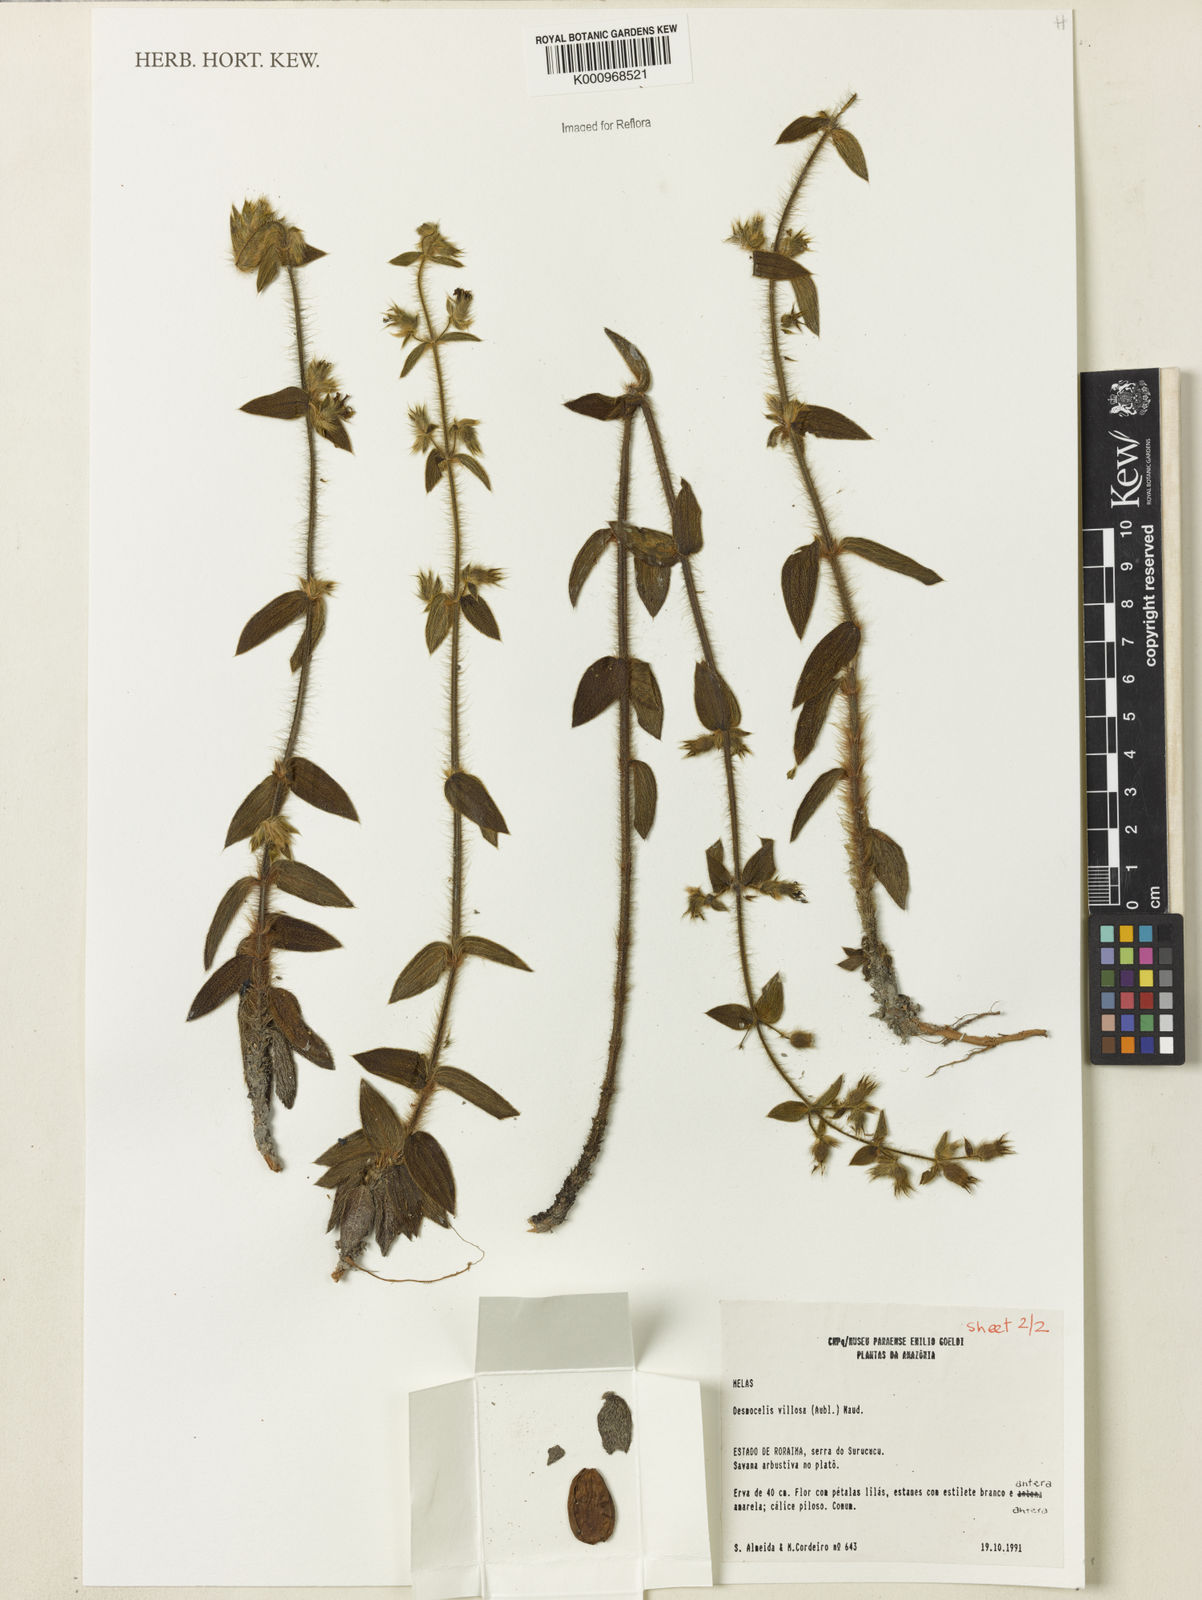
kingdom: Plantae
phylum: Tracheophyta
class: Magnoliopsida
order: Myrtales
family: Melastomataceae
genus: Desmoscelis
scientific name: Desmoscelis villosa
